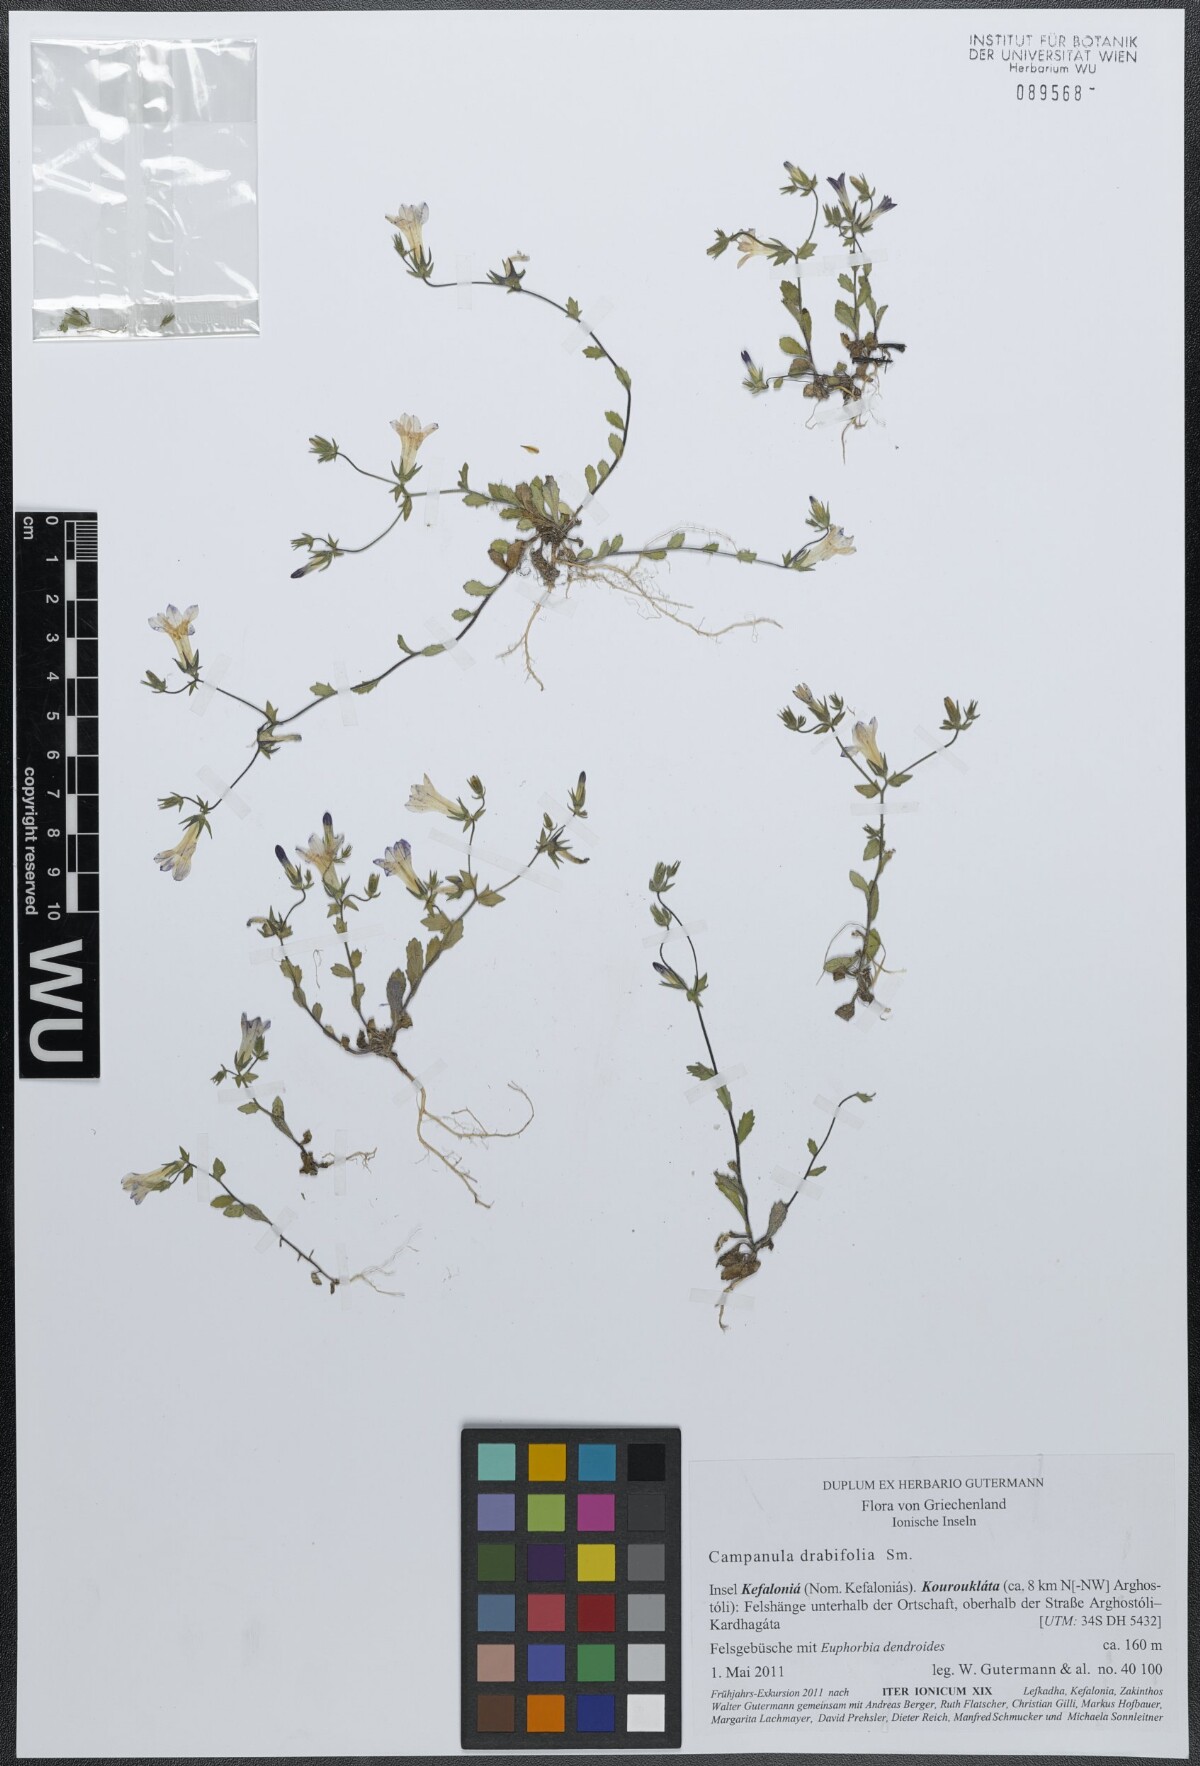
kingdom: Plantae
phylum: Tracheophyta
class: Magnoliopsida
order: Asterales
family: Campanulaceae
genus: Campanula
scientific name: Campanula drabifolia
